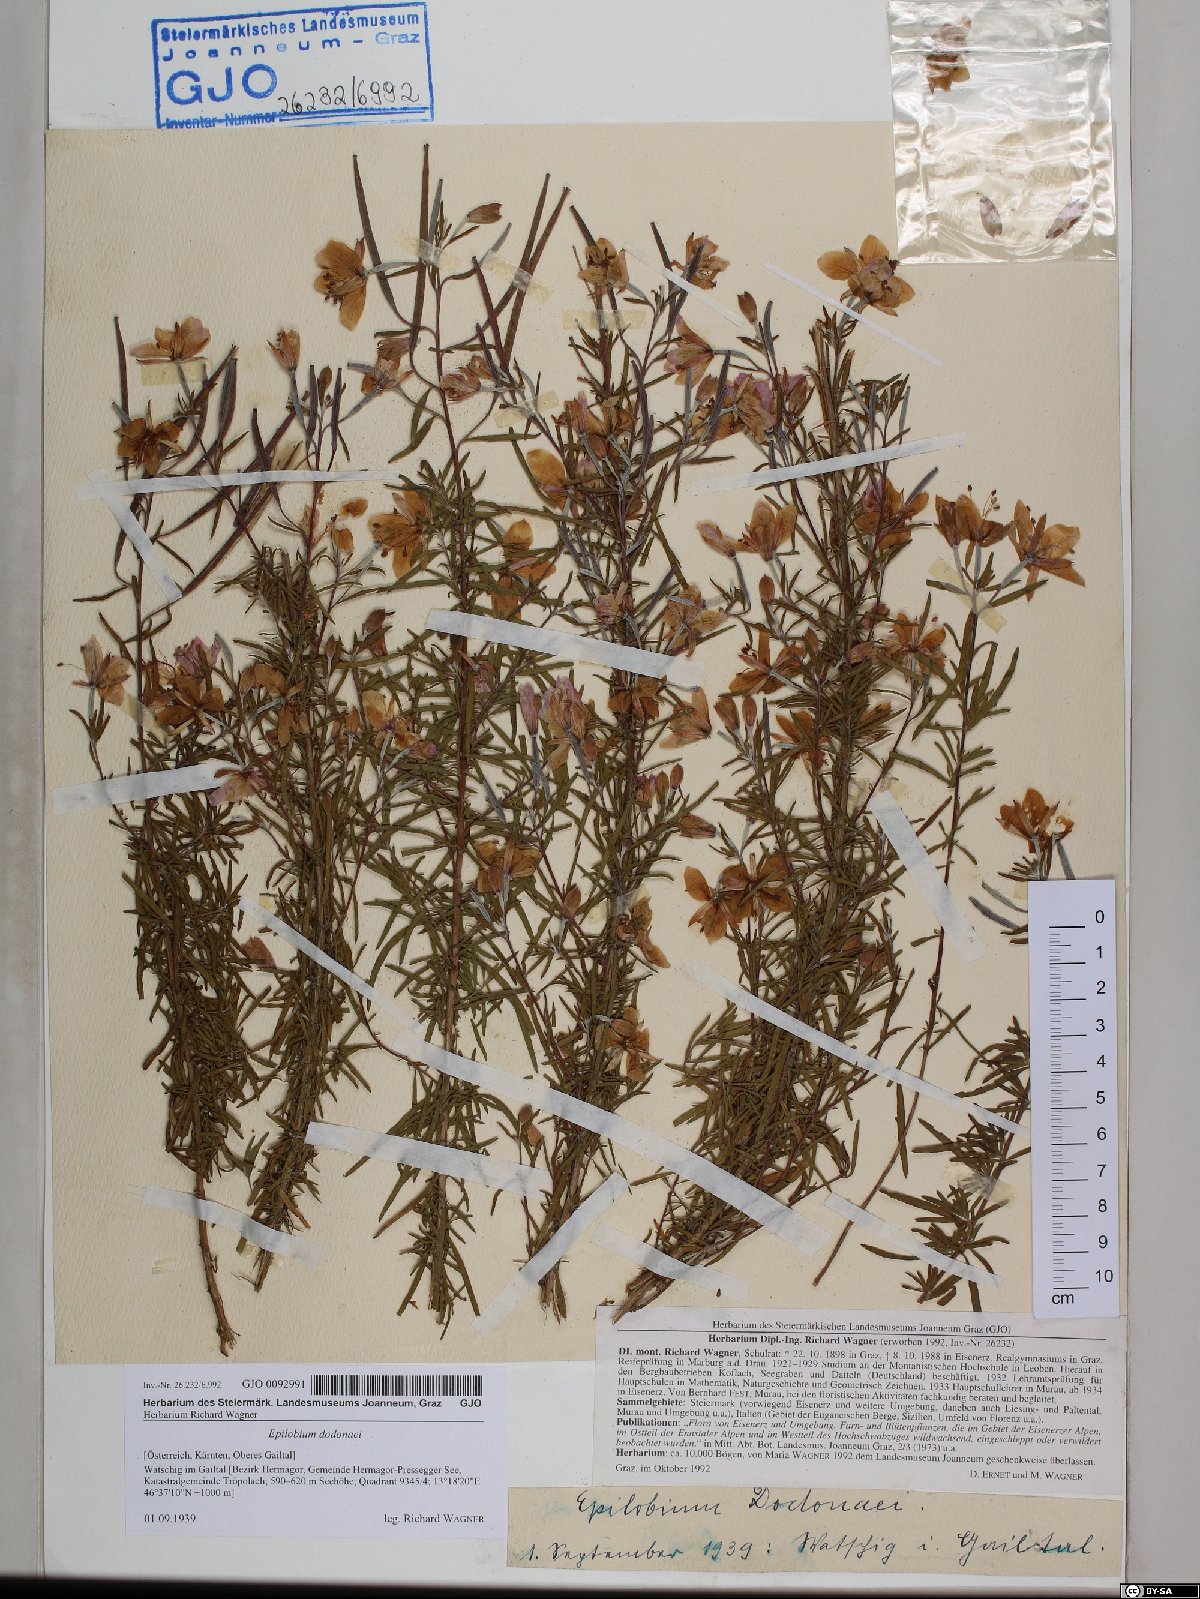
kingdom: Plantae
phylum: Tracheophyta
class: Magnoliopsida
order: Myrtales
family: Onagraceae
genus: Chamaenerion
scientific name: Chamaenerion dodonaei
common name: Rosemary-leaved willowherb
